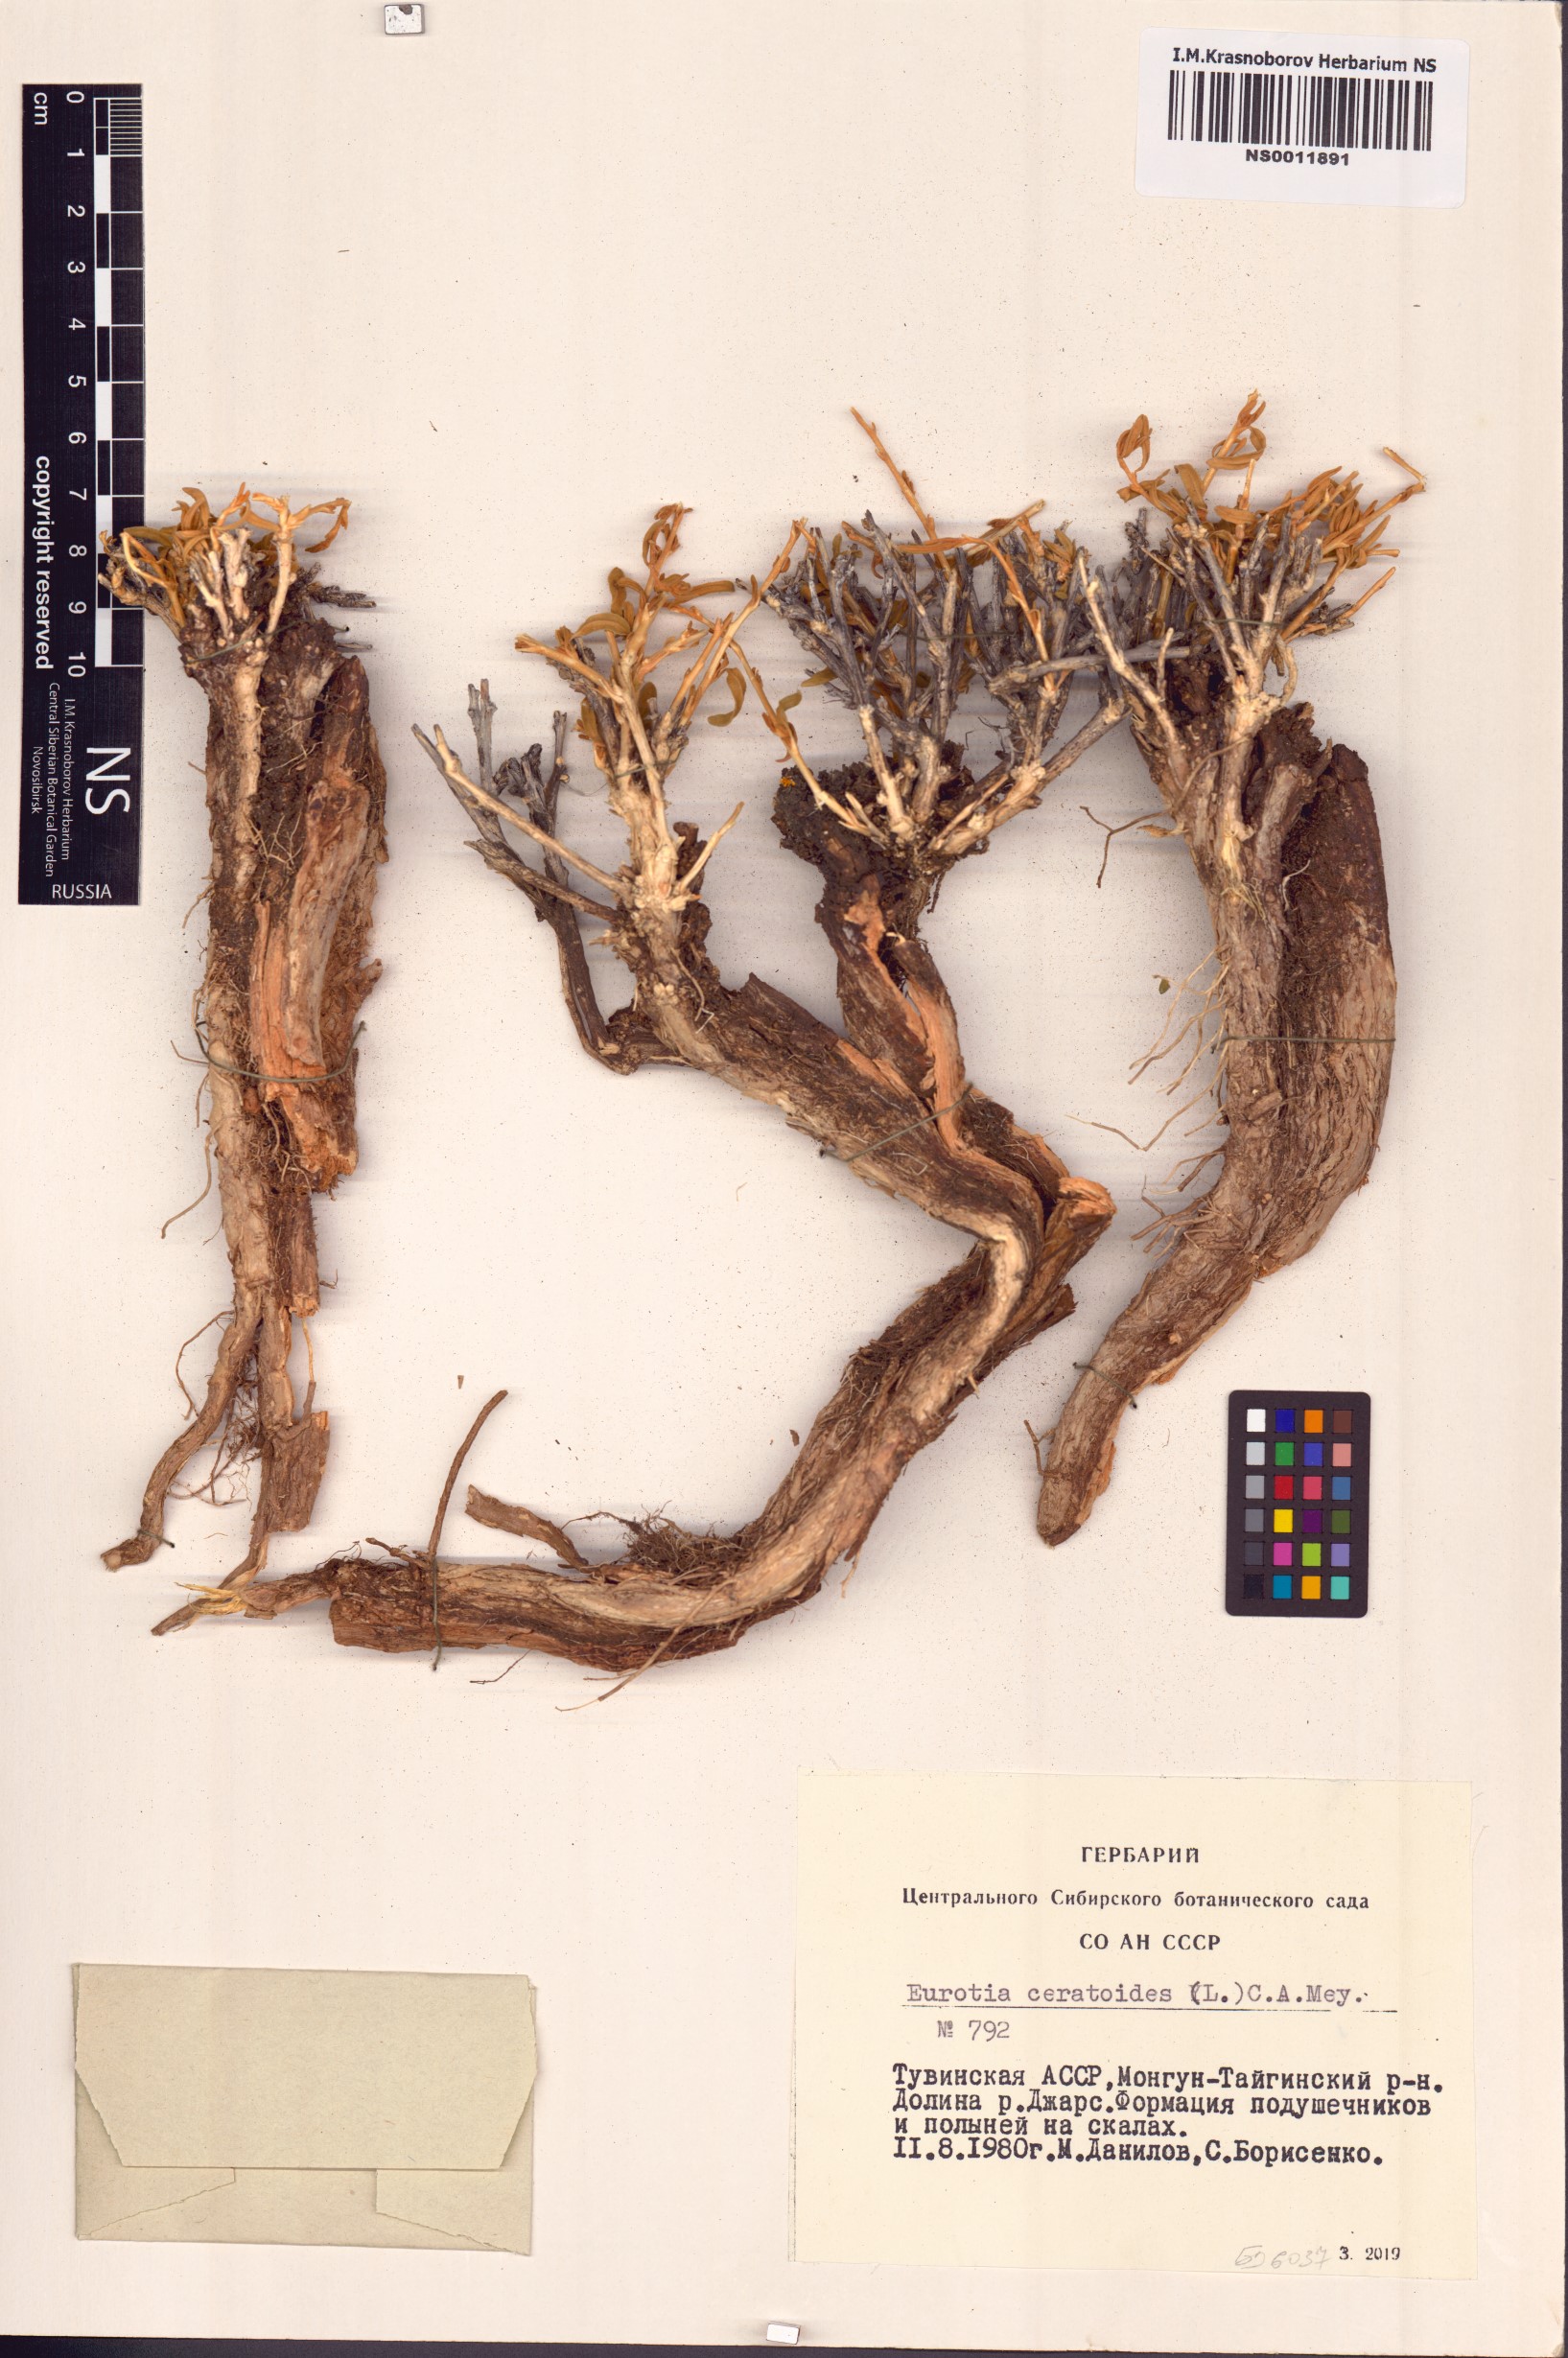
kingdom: Plantae
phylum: Tracheophyta
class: Magnoliopsida
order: Caryophyllales
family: Amaranthaceae
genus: Krascheninnikovia
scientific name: Krascheninnikovia ceratoides
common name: Pamirian winterfat
